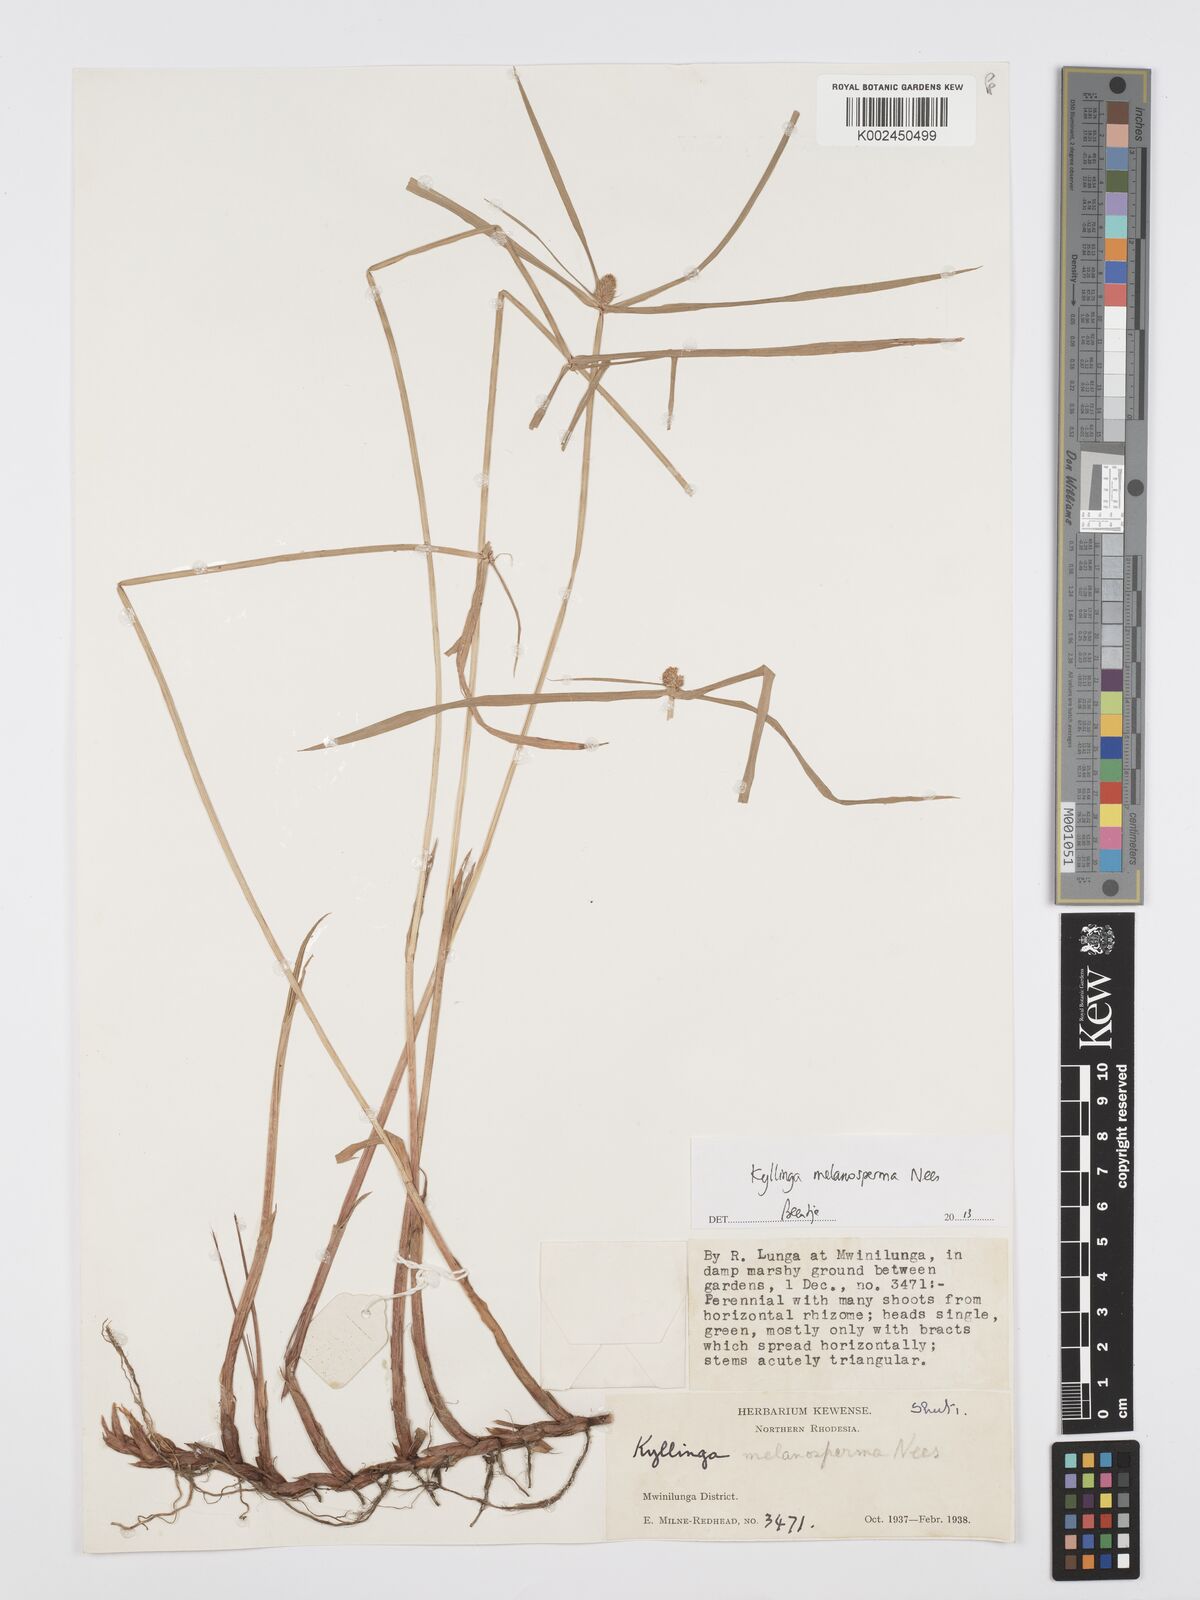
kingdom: Plantae
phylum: Tracheophyta
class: Liliopsida
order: Poales
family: Cyperaceae
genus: Cyperus
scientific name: Cyperus melanospermus
